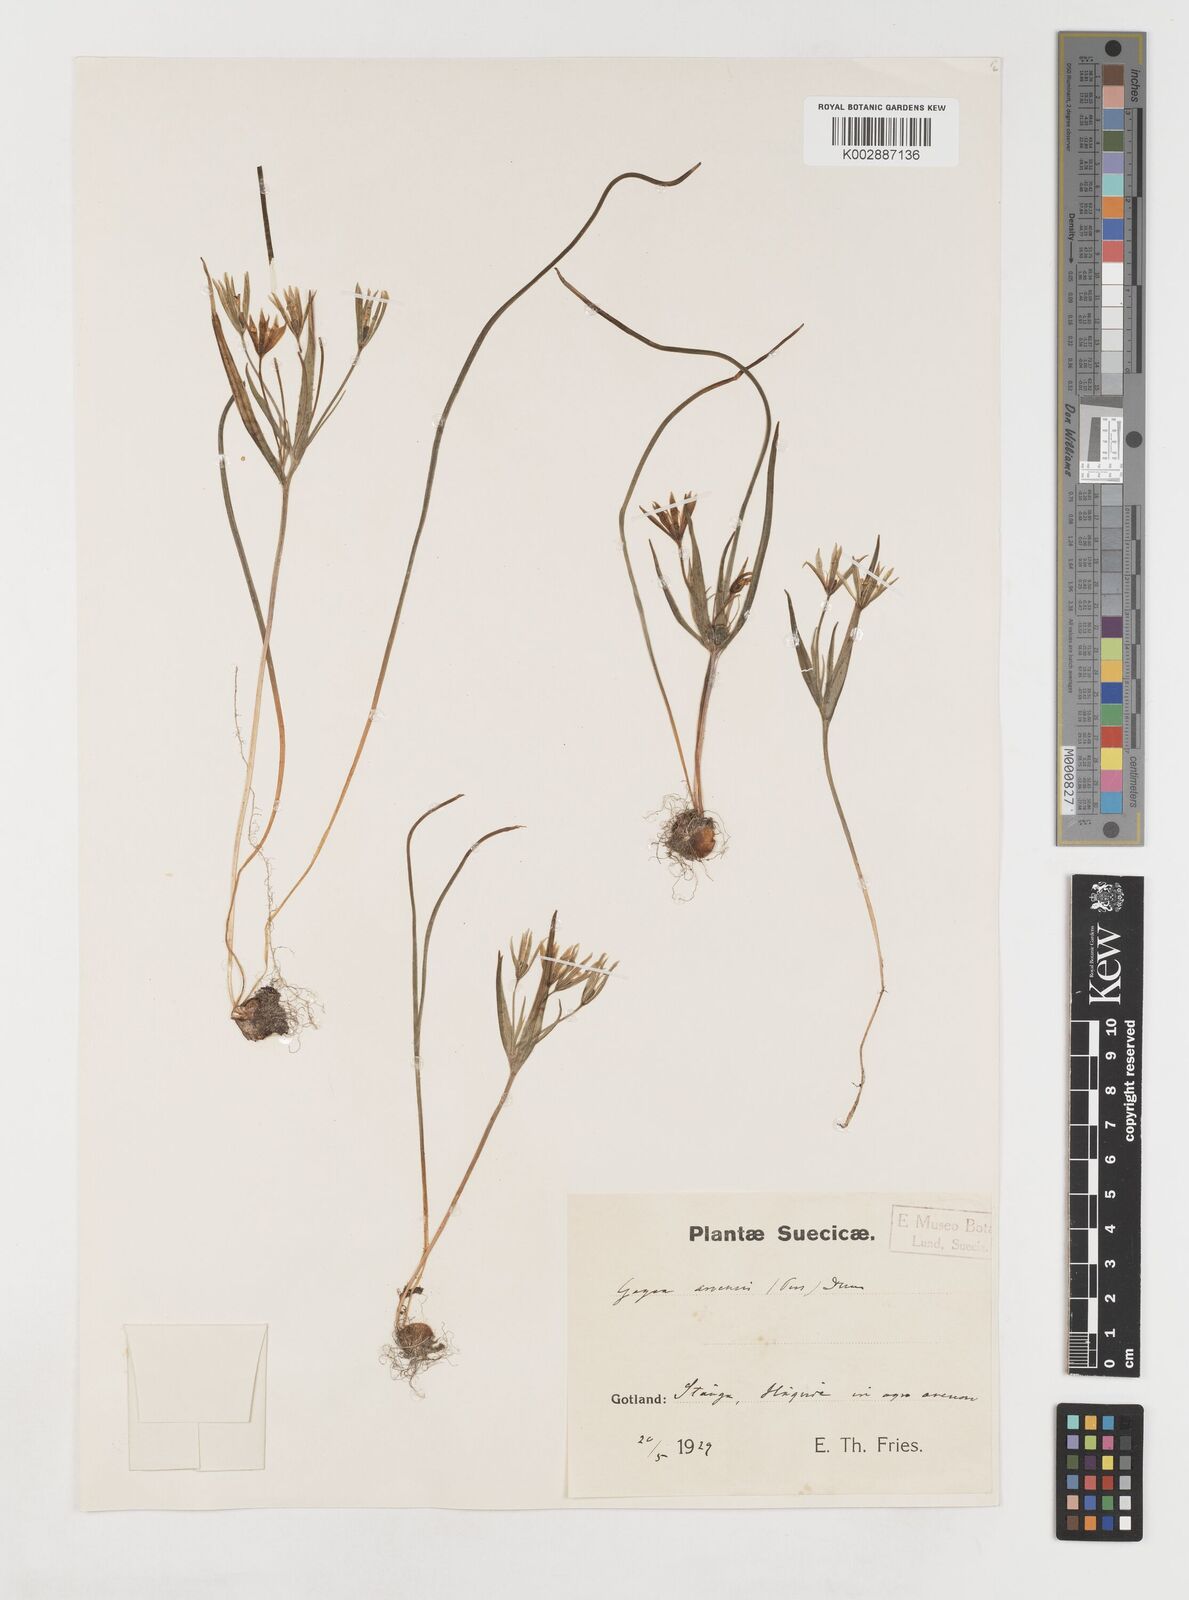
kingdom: Plantae
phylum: Tracheophyta
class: Liliopsida
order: Liliales
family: Liliaceae
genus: Gagea
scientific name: Gagea minima
